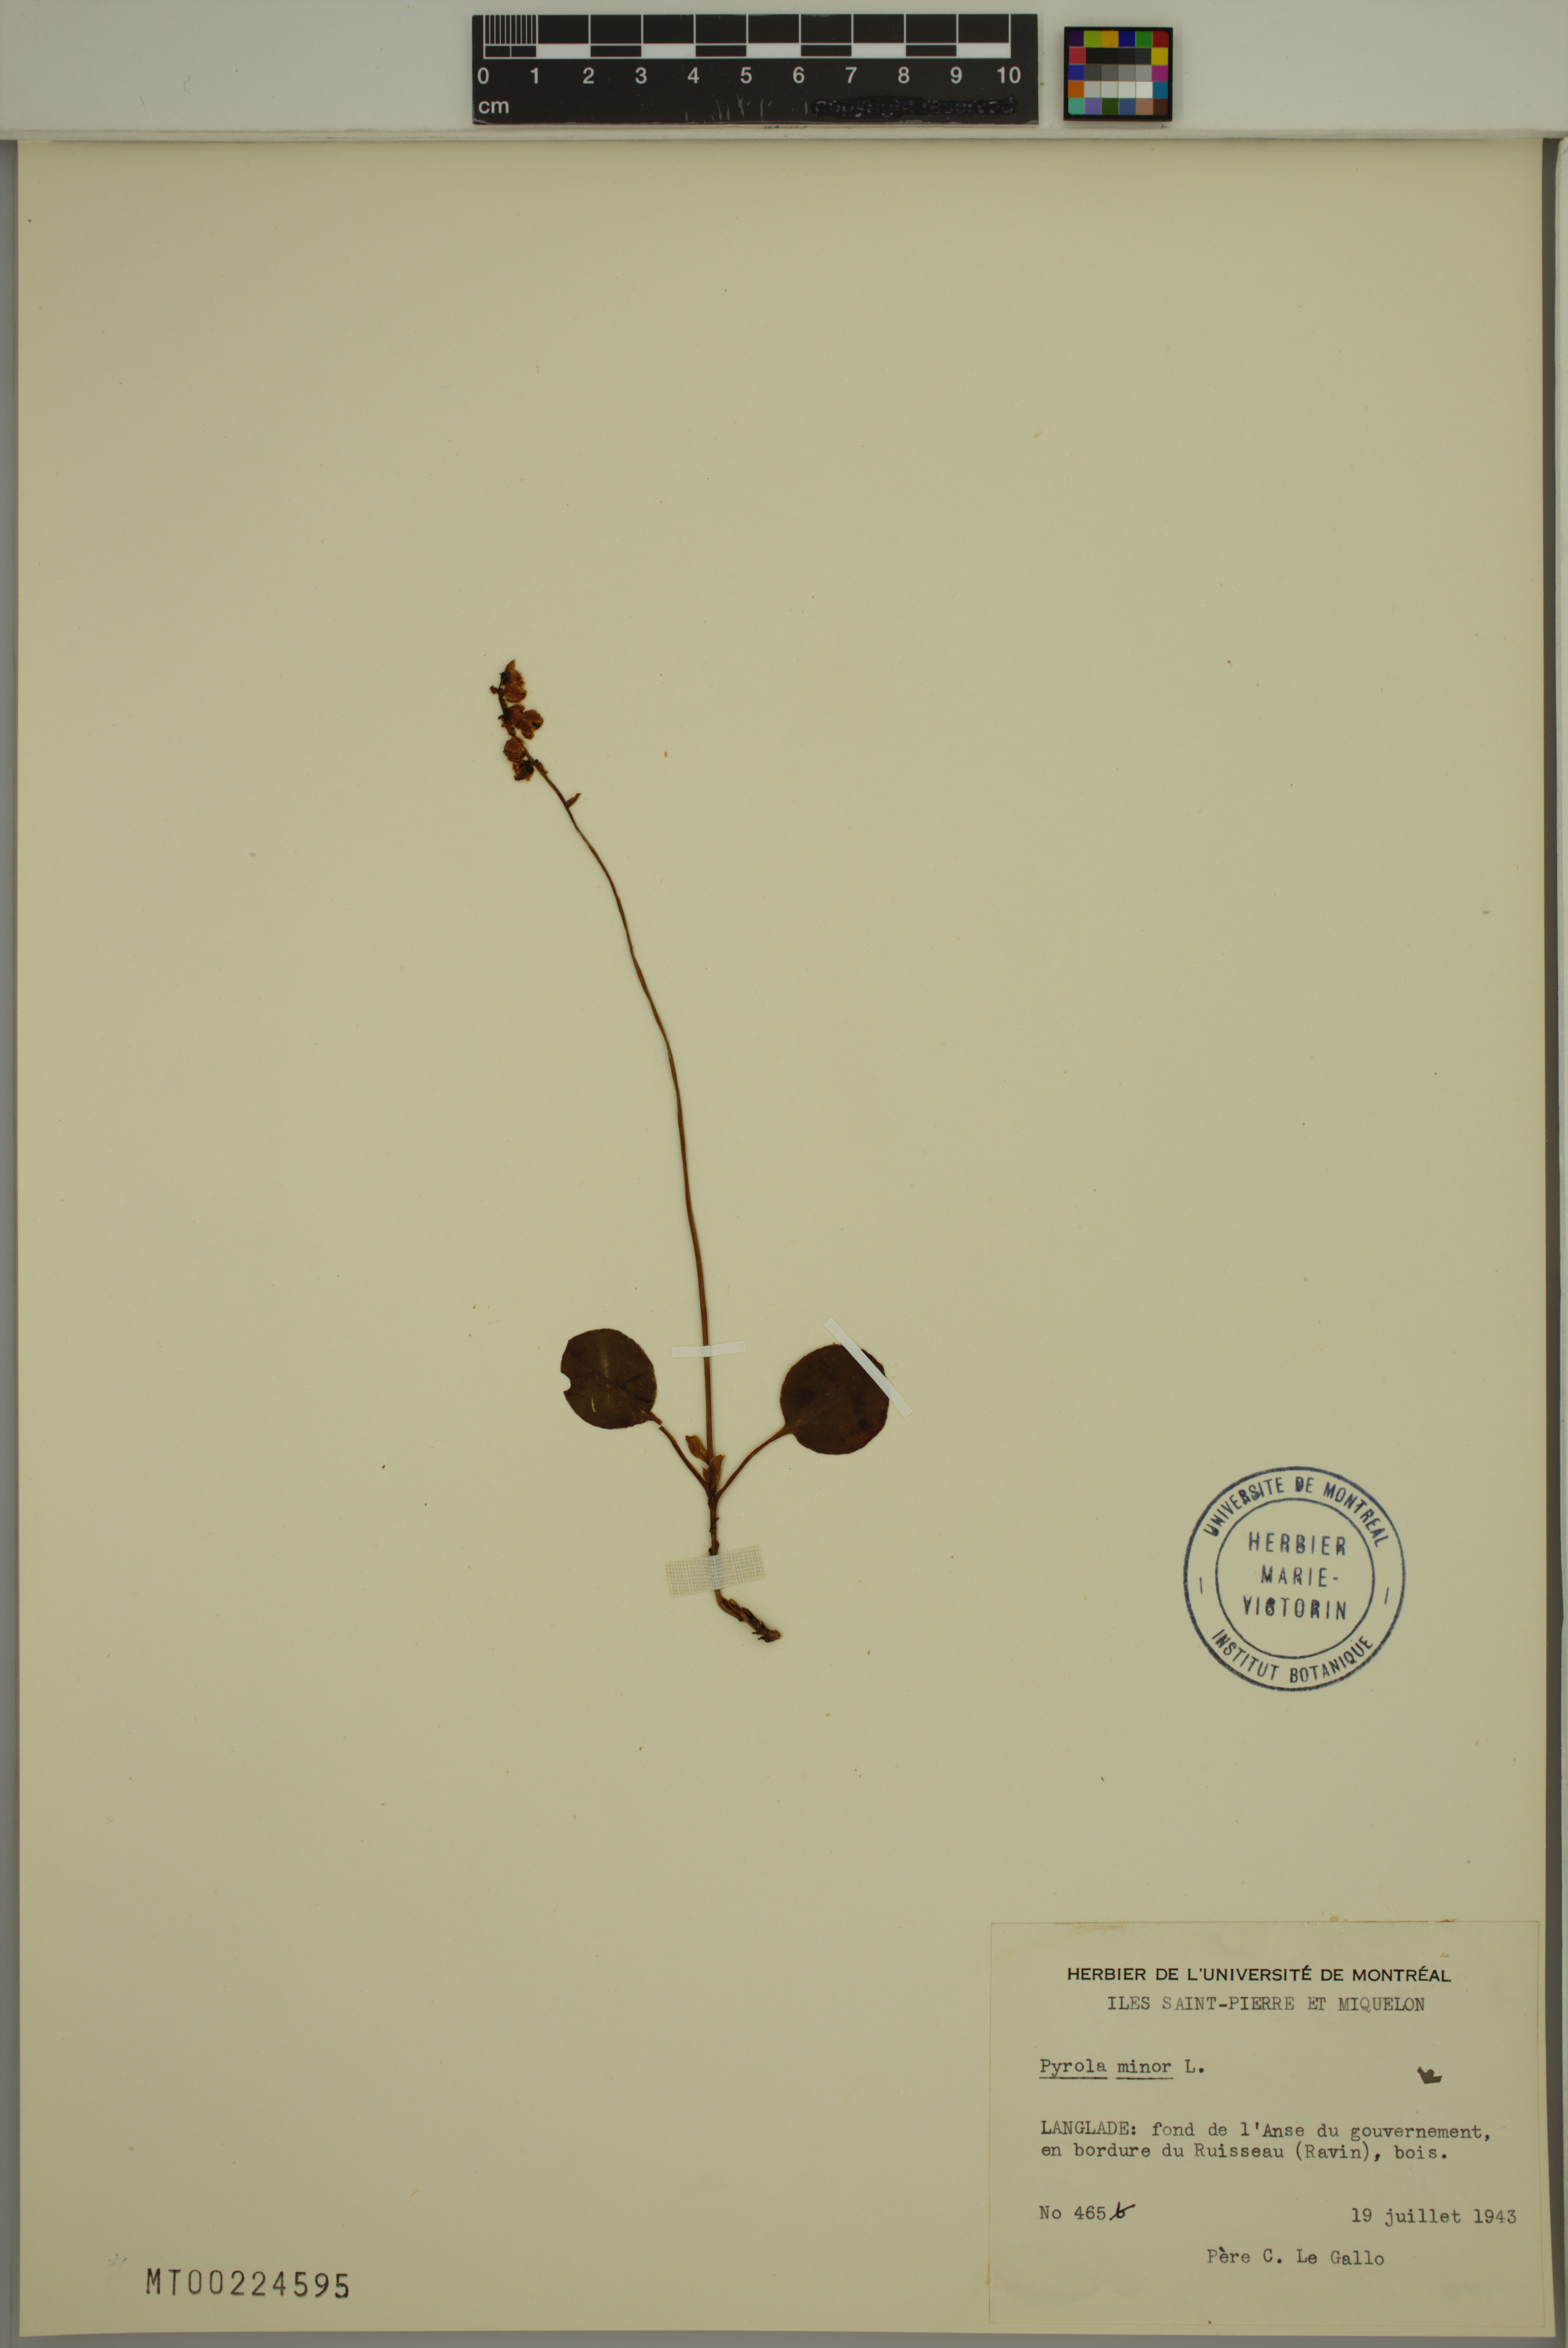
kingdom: Plantae
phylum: Tracheophyta
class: Magnoliopsida
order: Ericales
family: Ericaceae
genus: Pyrola
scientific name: Pyrola minor
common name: Common wintergreen
